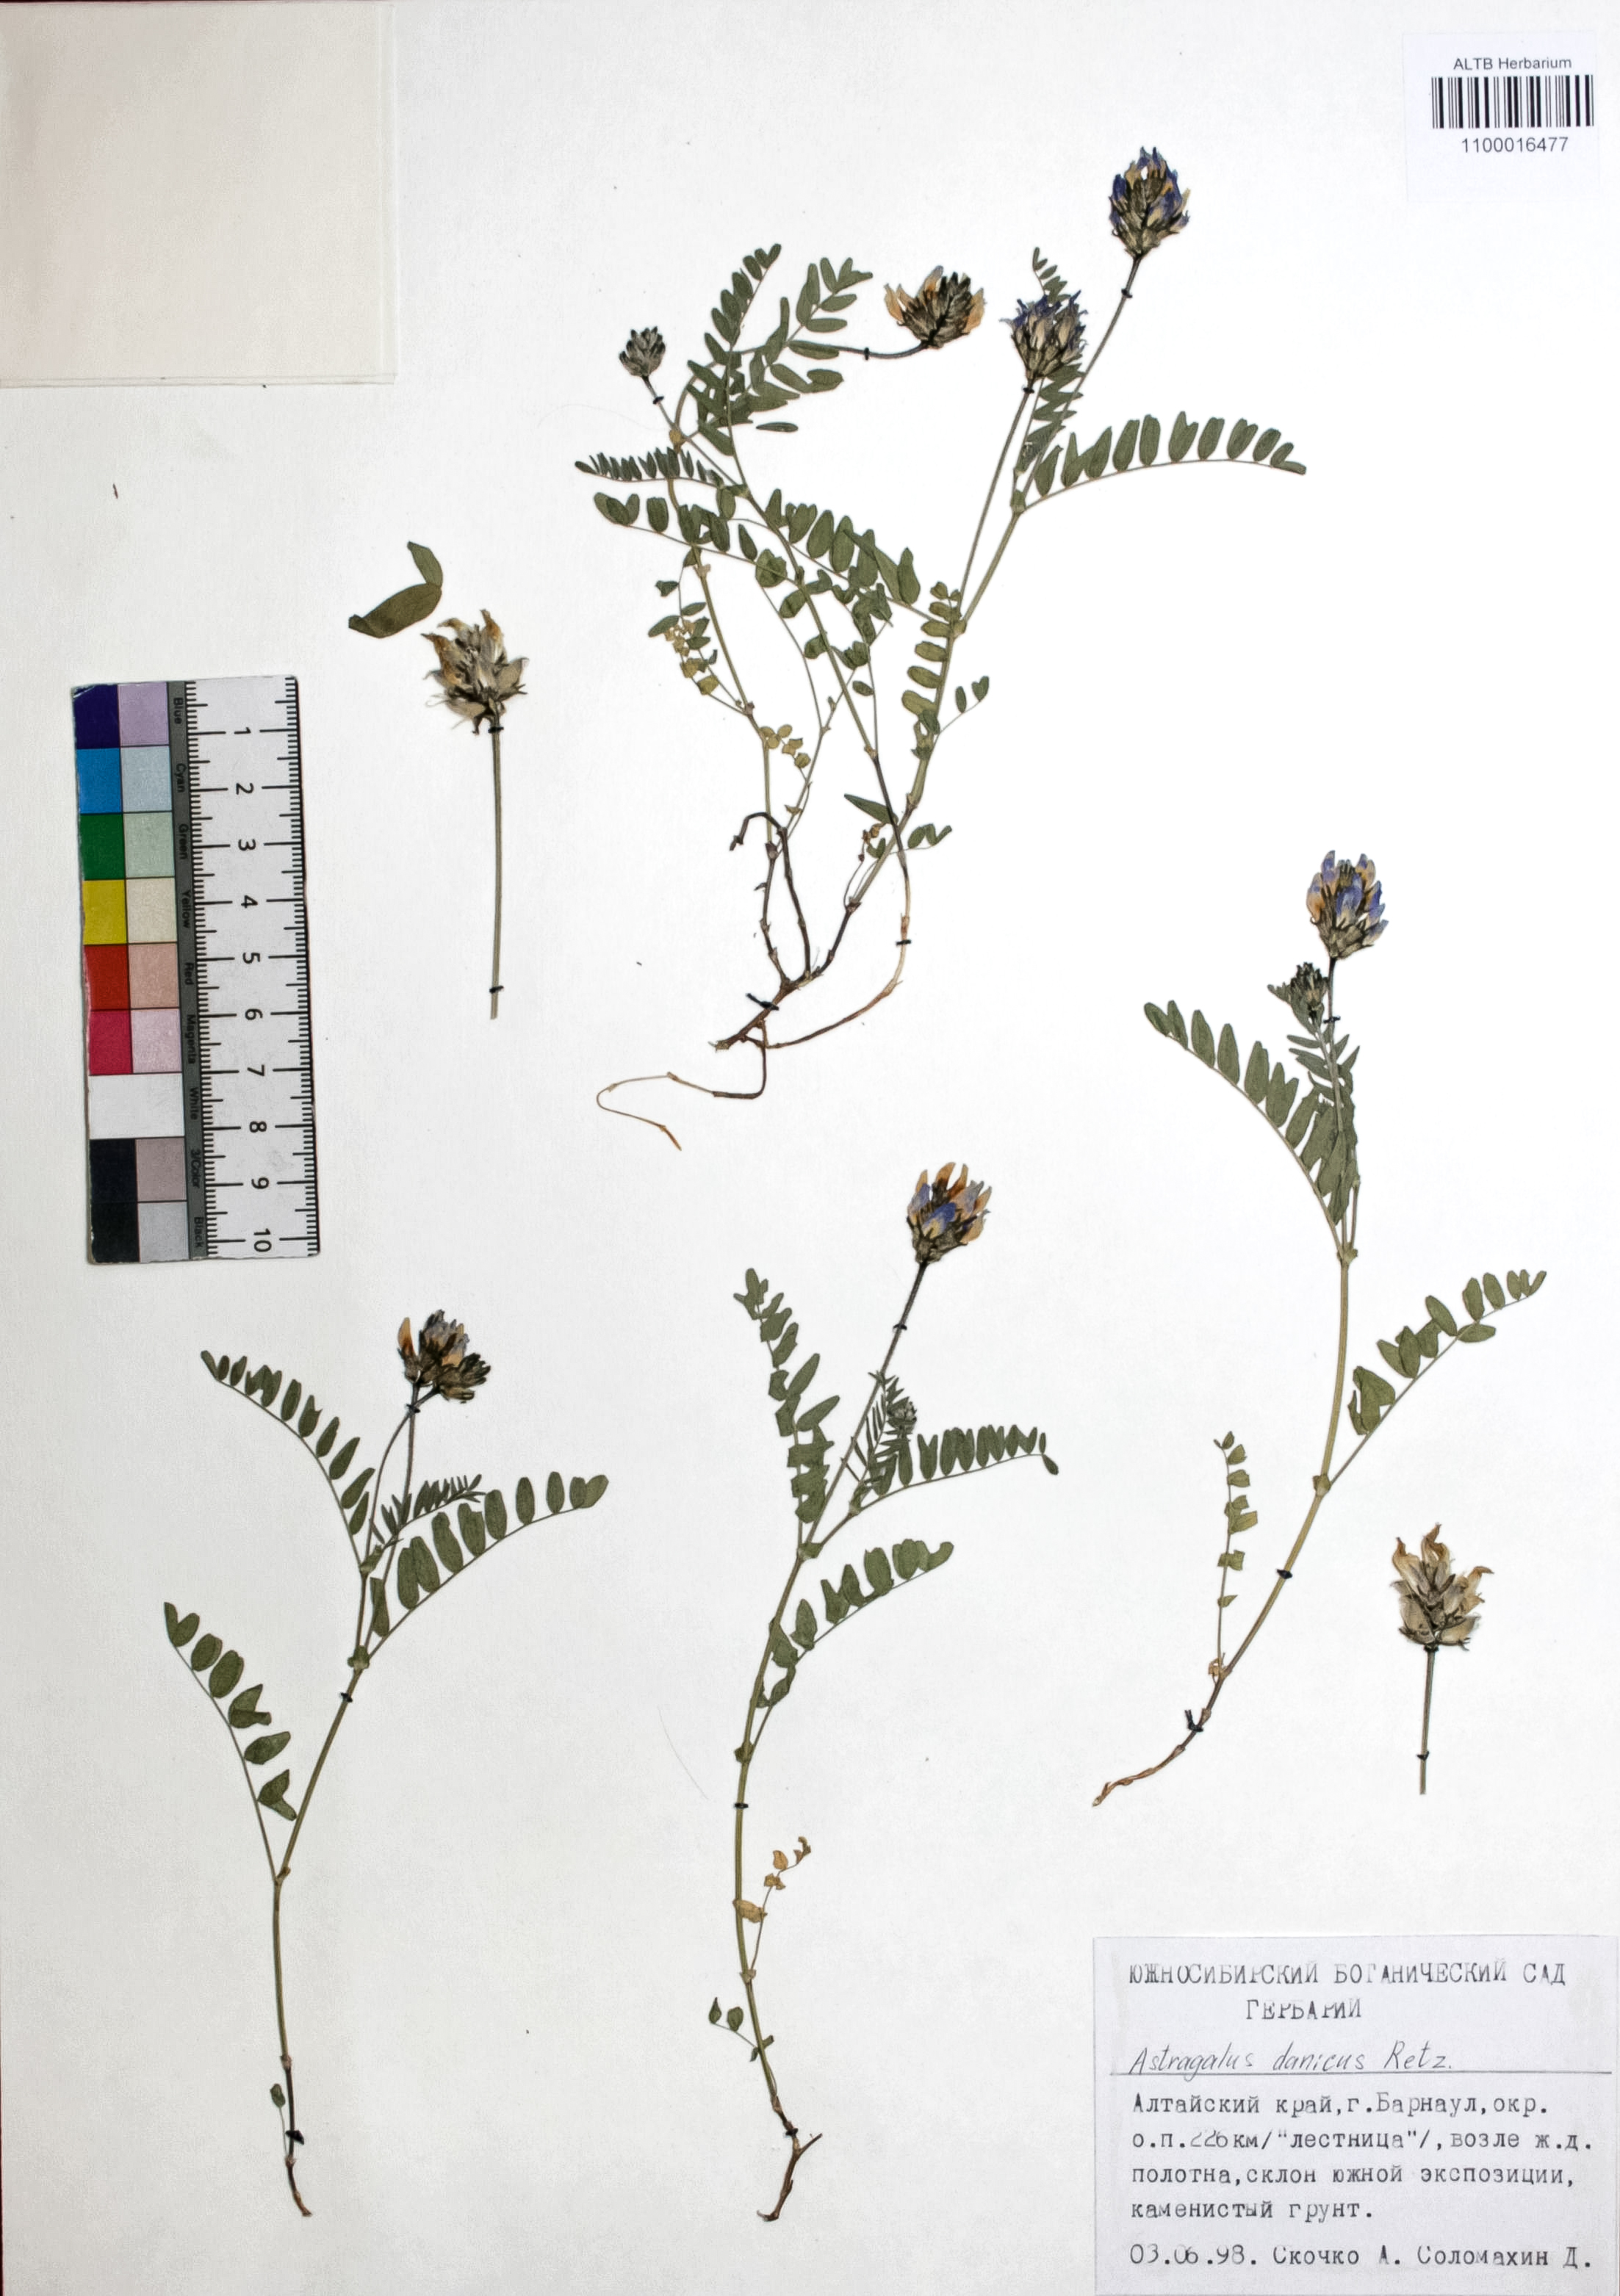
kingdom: Plantae
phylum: Tracheophyta
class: Magnoliopsida
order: Fabales
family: Fabaceae
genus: Astragalus
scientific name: Astragalus danicus
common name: Purple milk-vetch
